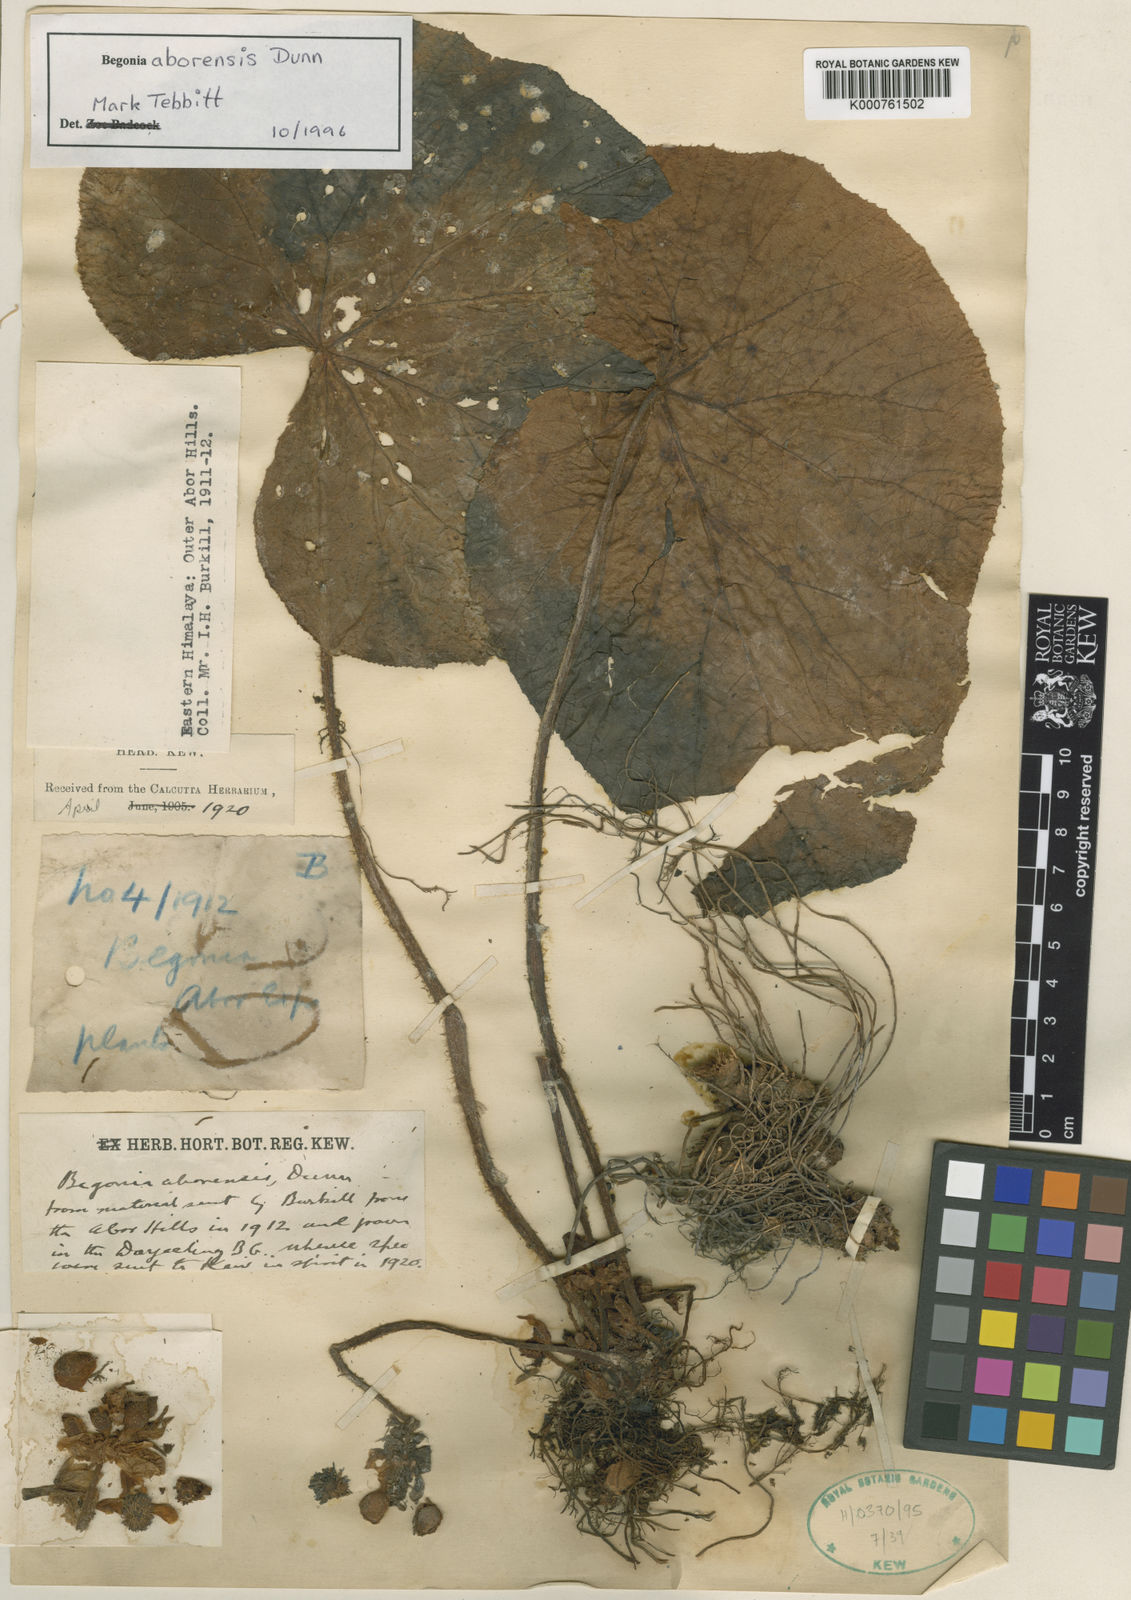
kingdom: Plantae
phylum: Tracheophyta
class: Magnoliopsida
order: Cucurbitales
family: Begoniaceae
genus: Begonia
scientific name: Begonia aborensis
